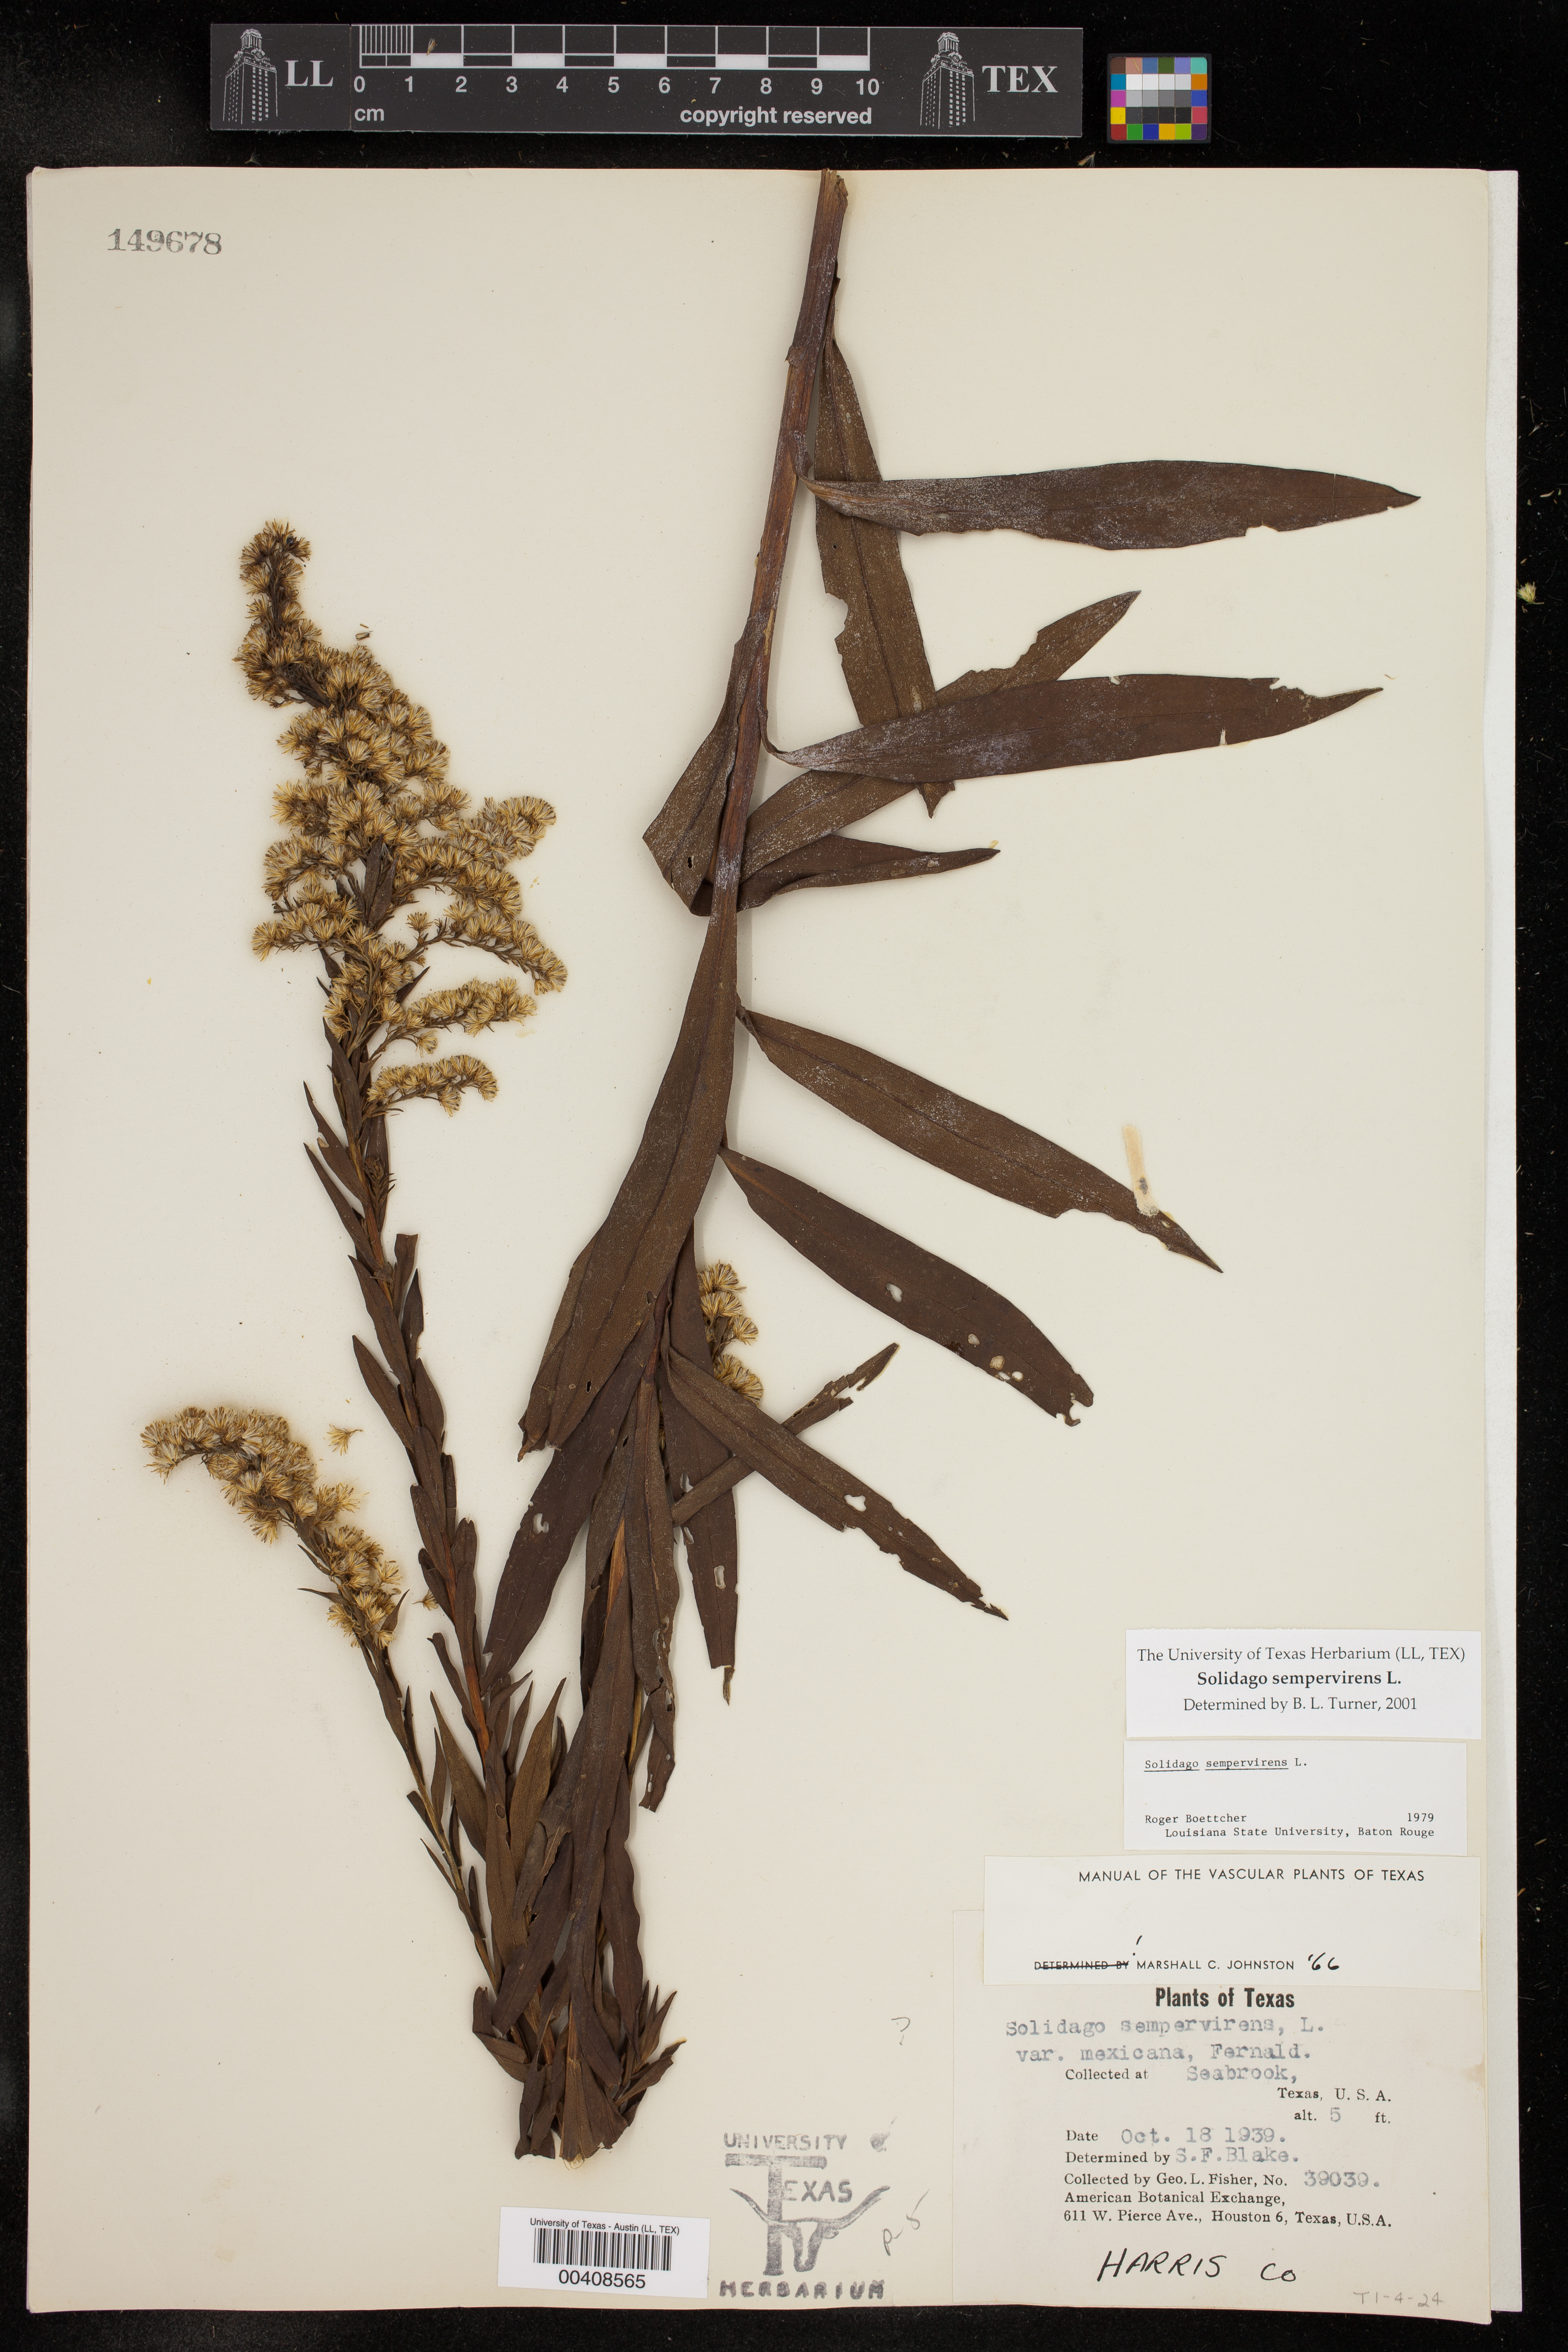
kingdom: Plantae
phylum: Tracheophyta
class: Magnoliopsida
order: Asterales
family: Asteraceae
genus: Solidago
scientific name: Solidago sempervirens
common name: Salt-marsh goldenrod
